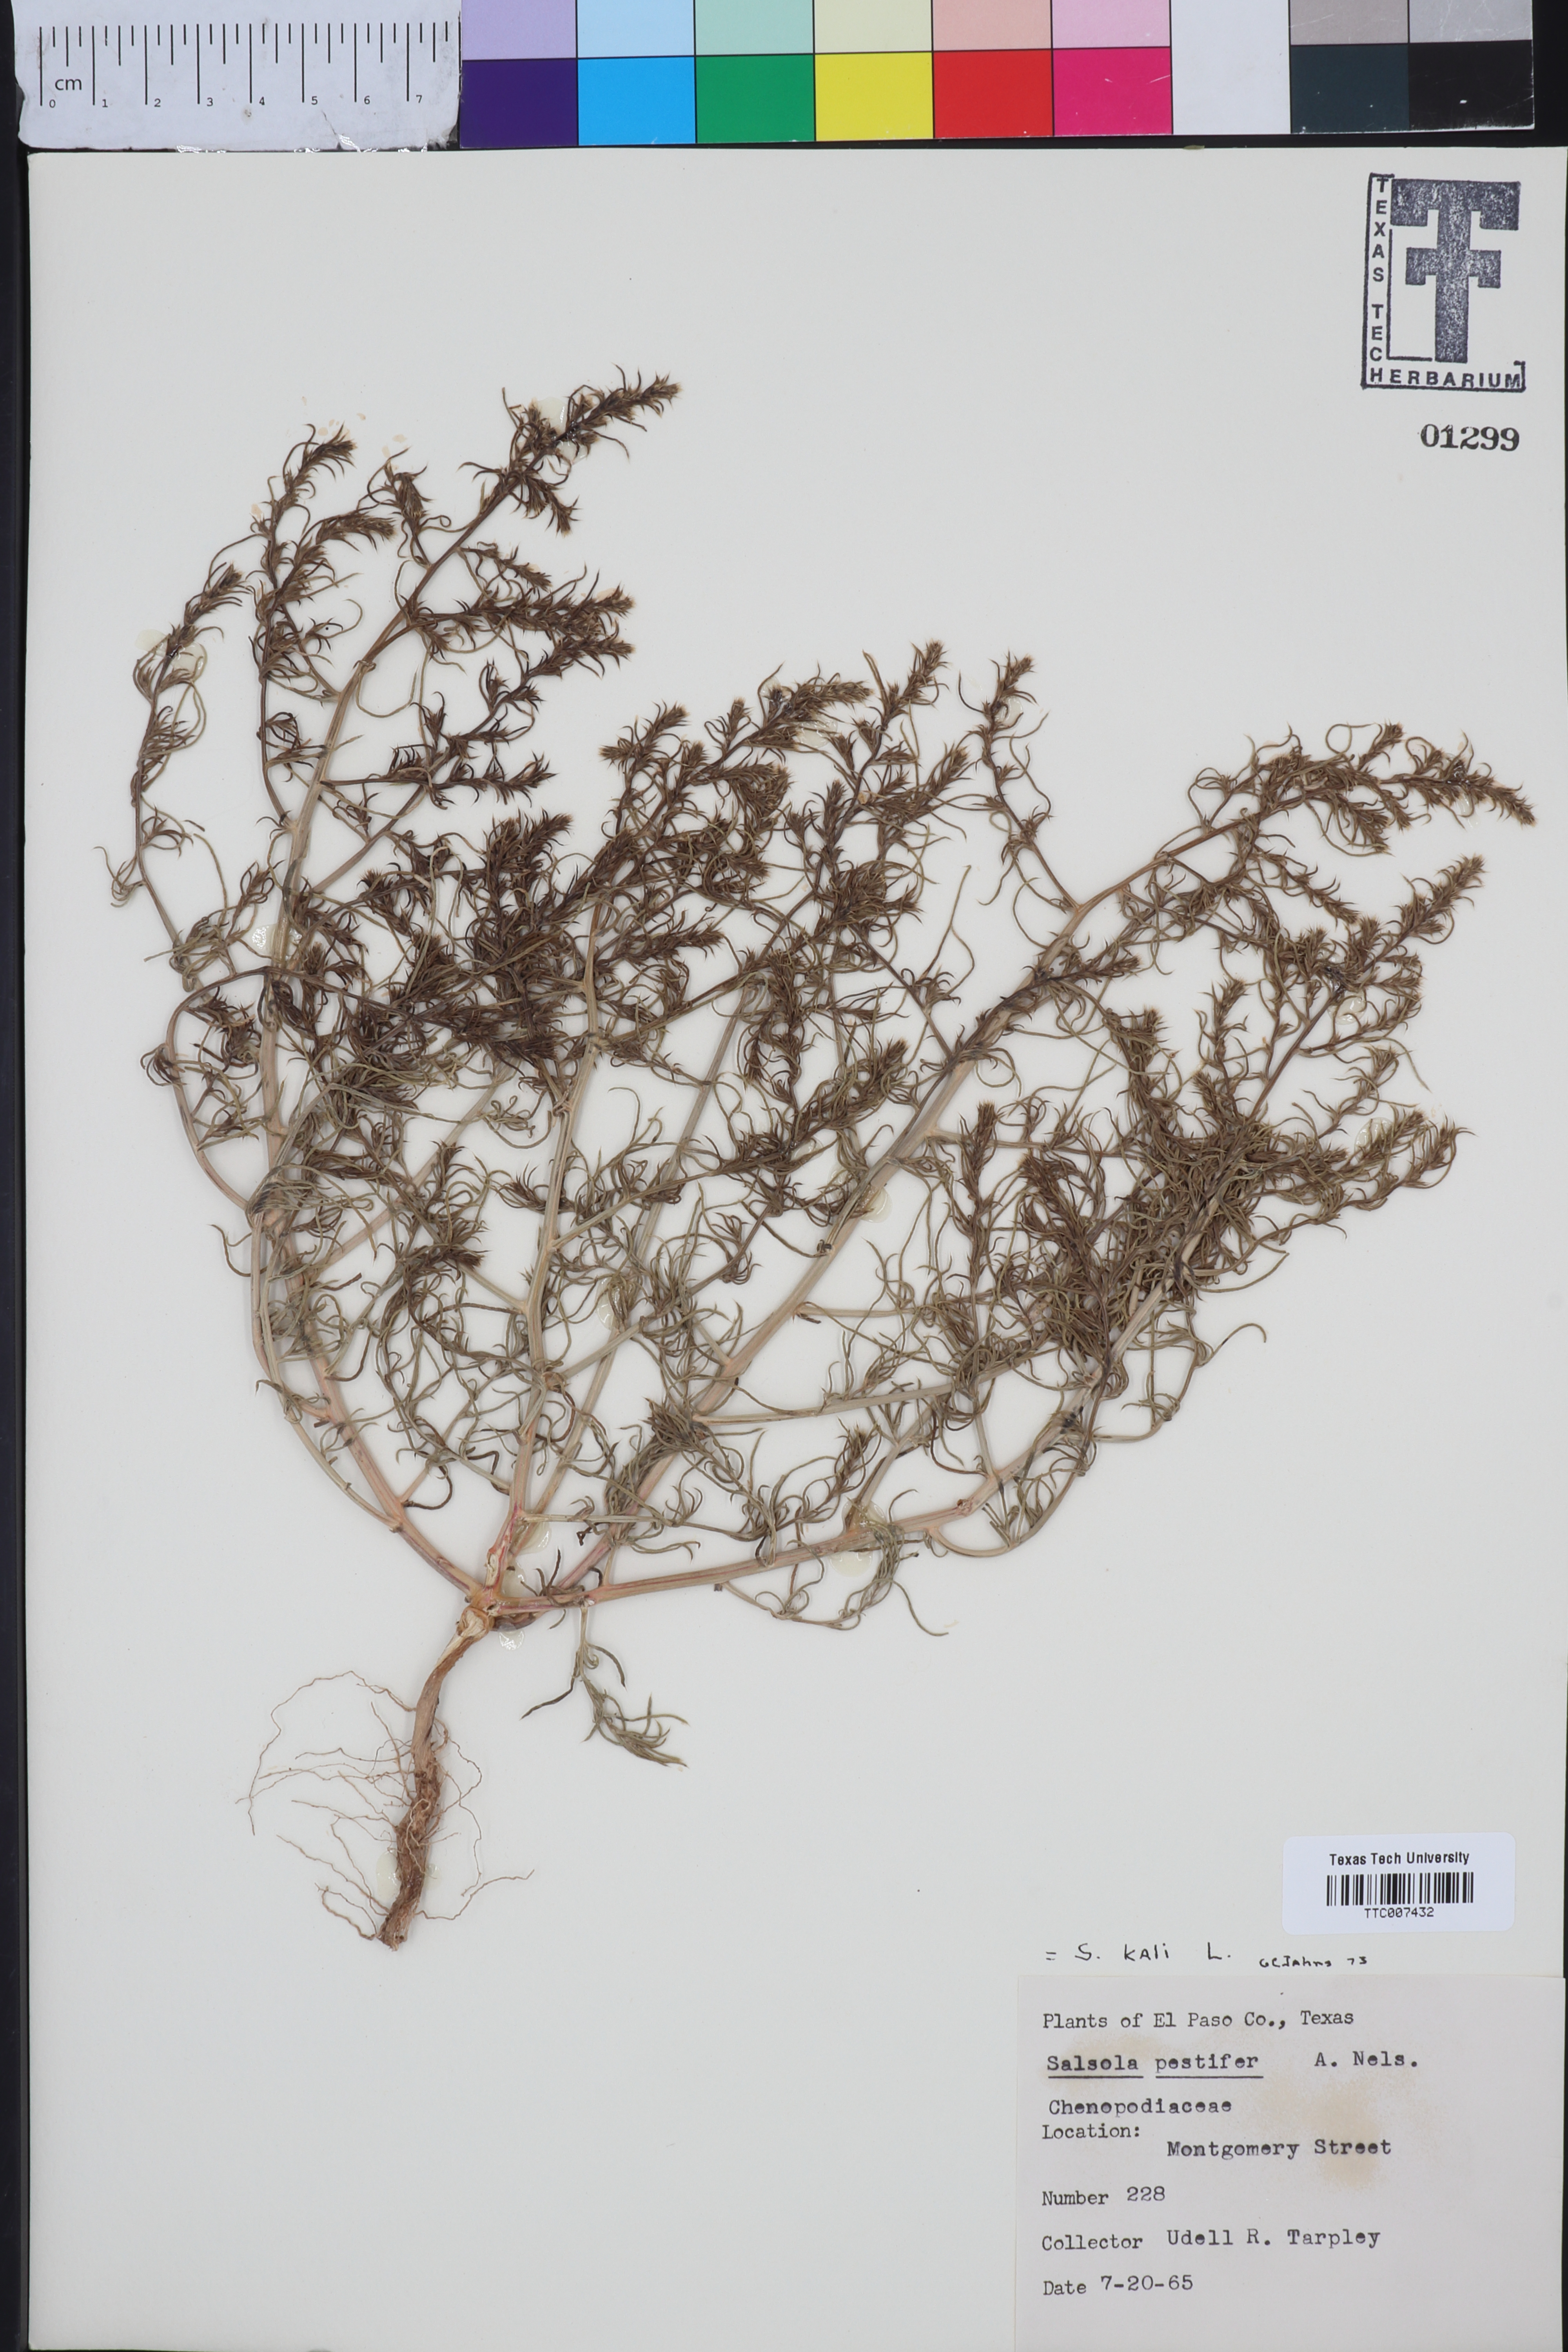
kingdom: Plantae
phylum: Tracheophyta
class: Magnoliopsida
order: Caryophyllales
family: Amaranthaceae
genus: Salsola
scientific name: Salsola kali
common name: Saltwort
